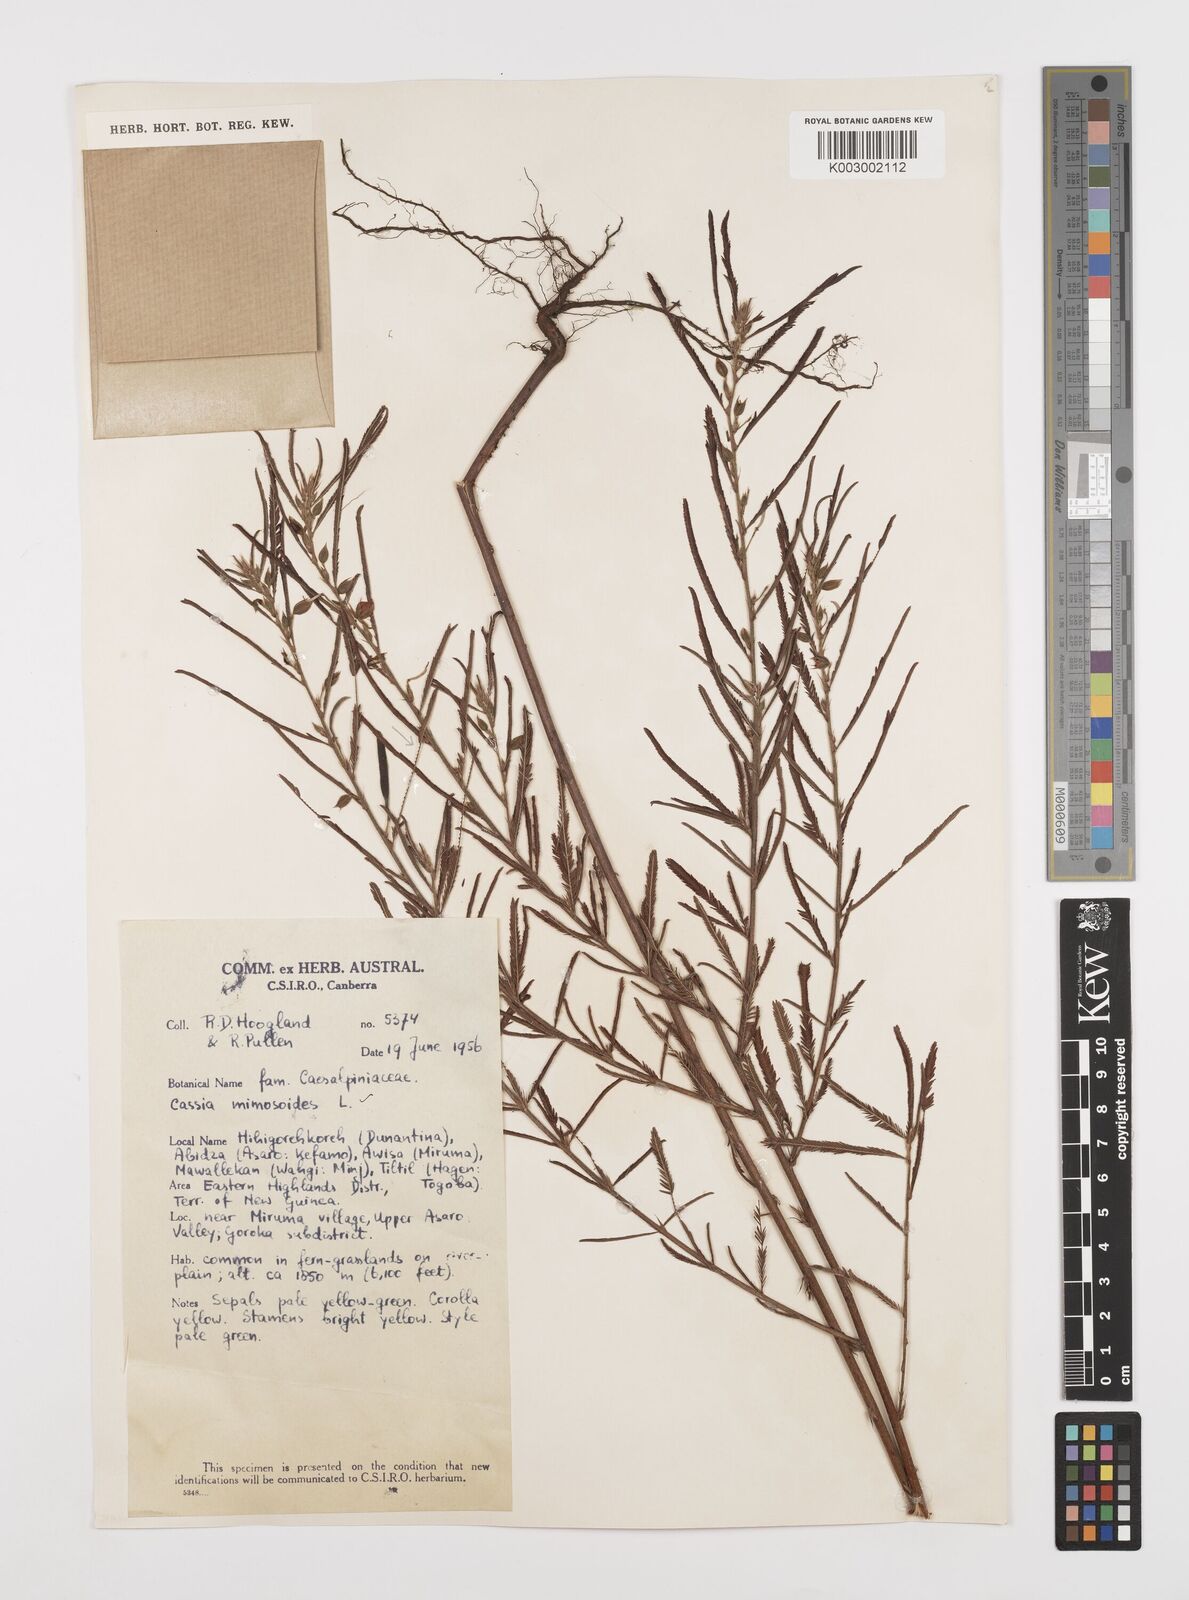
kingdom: Plantae
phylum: Tracheophyta
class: Magnoliopsida
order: Fabales
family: Fabaceae
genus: Chamaecrista
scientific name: Chamaecrista mimosoides
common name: Fish-bone cassia
